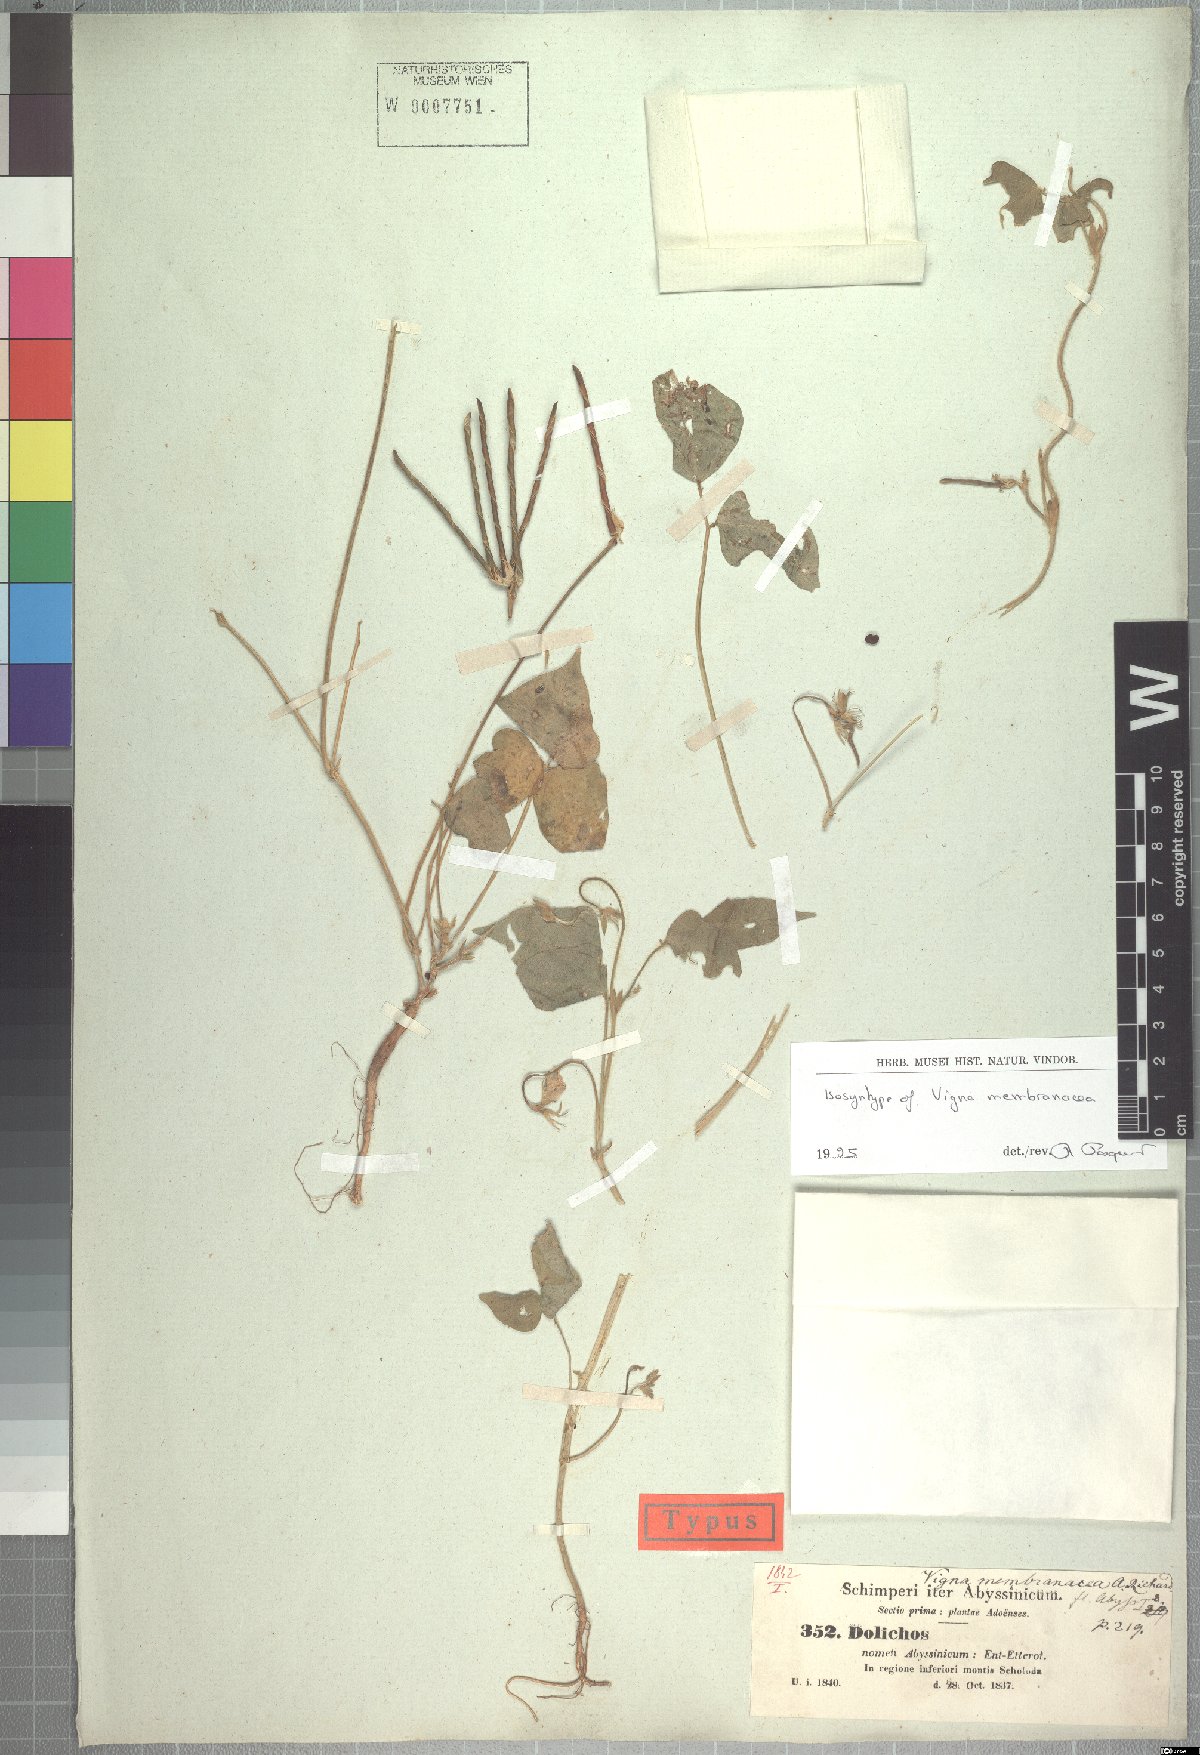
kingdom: Plantae
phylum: Tracheophyta
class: Magnoliopsida
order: Fabales
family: Fabaceae
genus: Vigna
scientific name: Vigna membranacea
